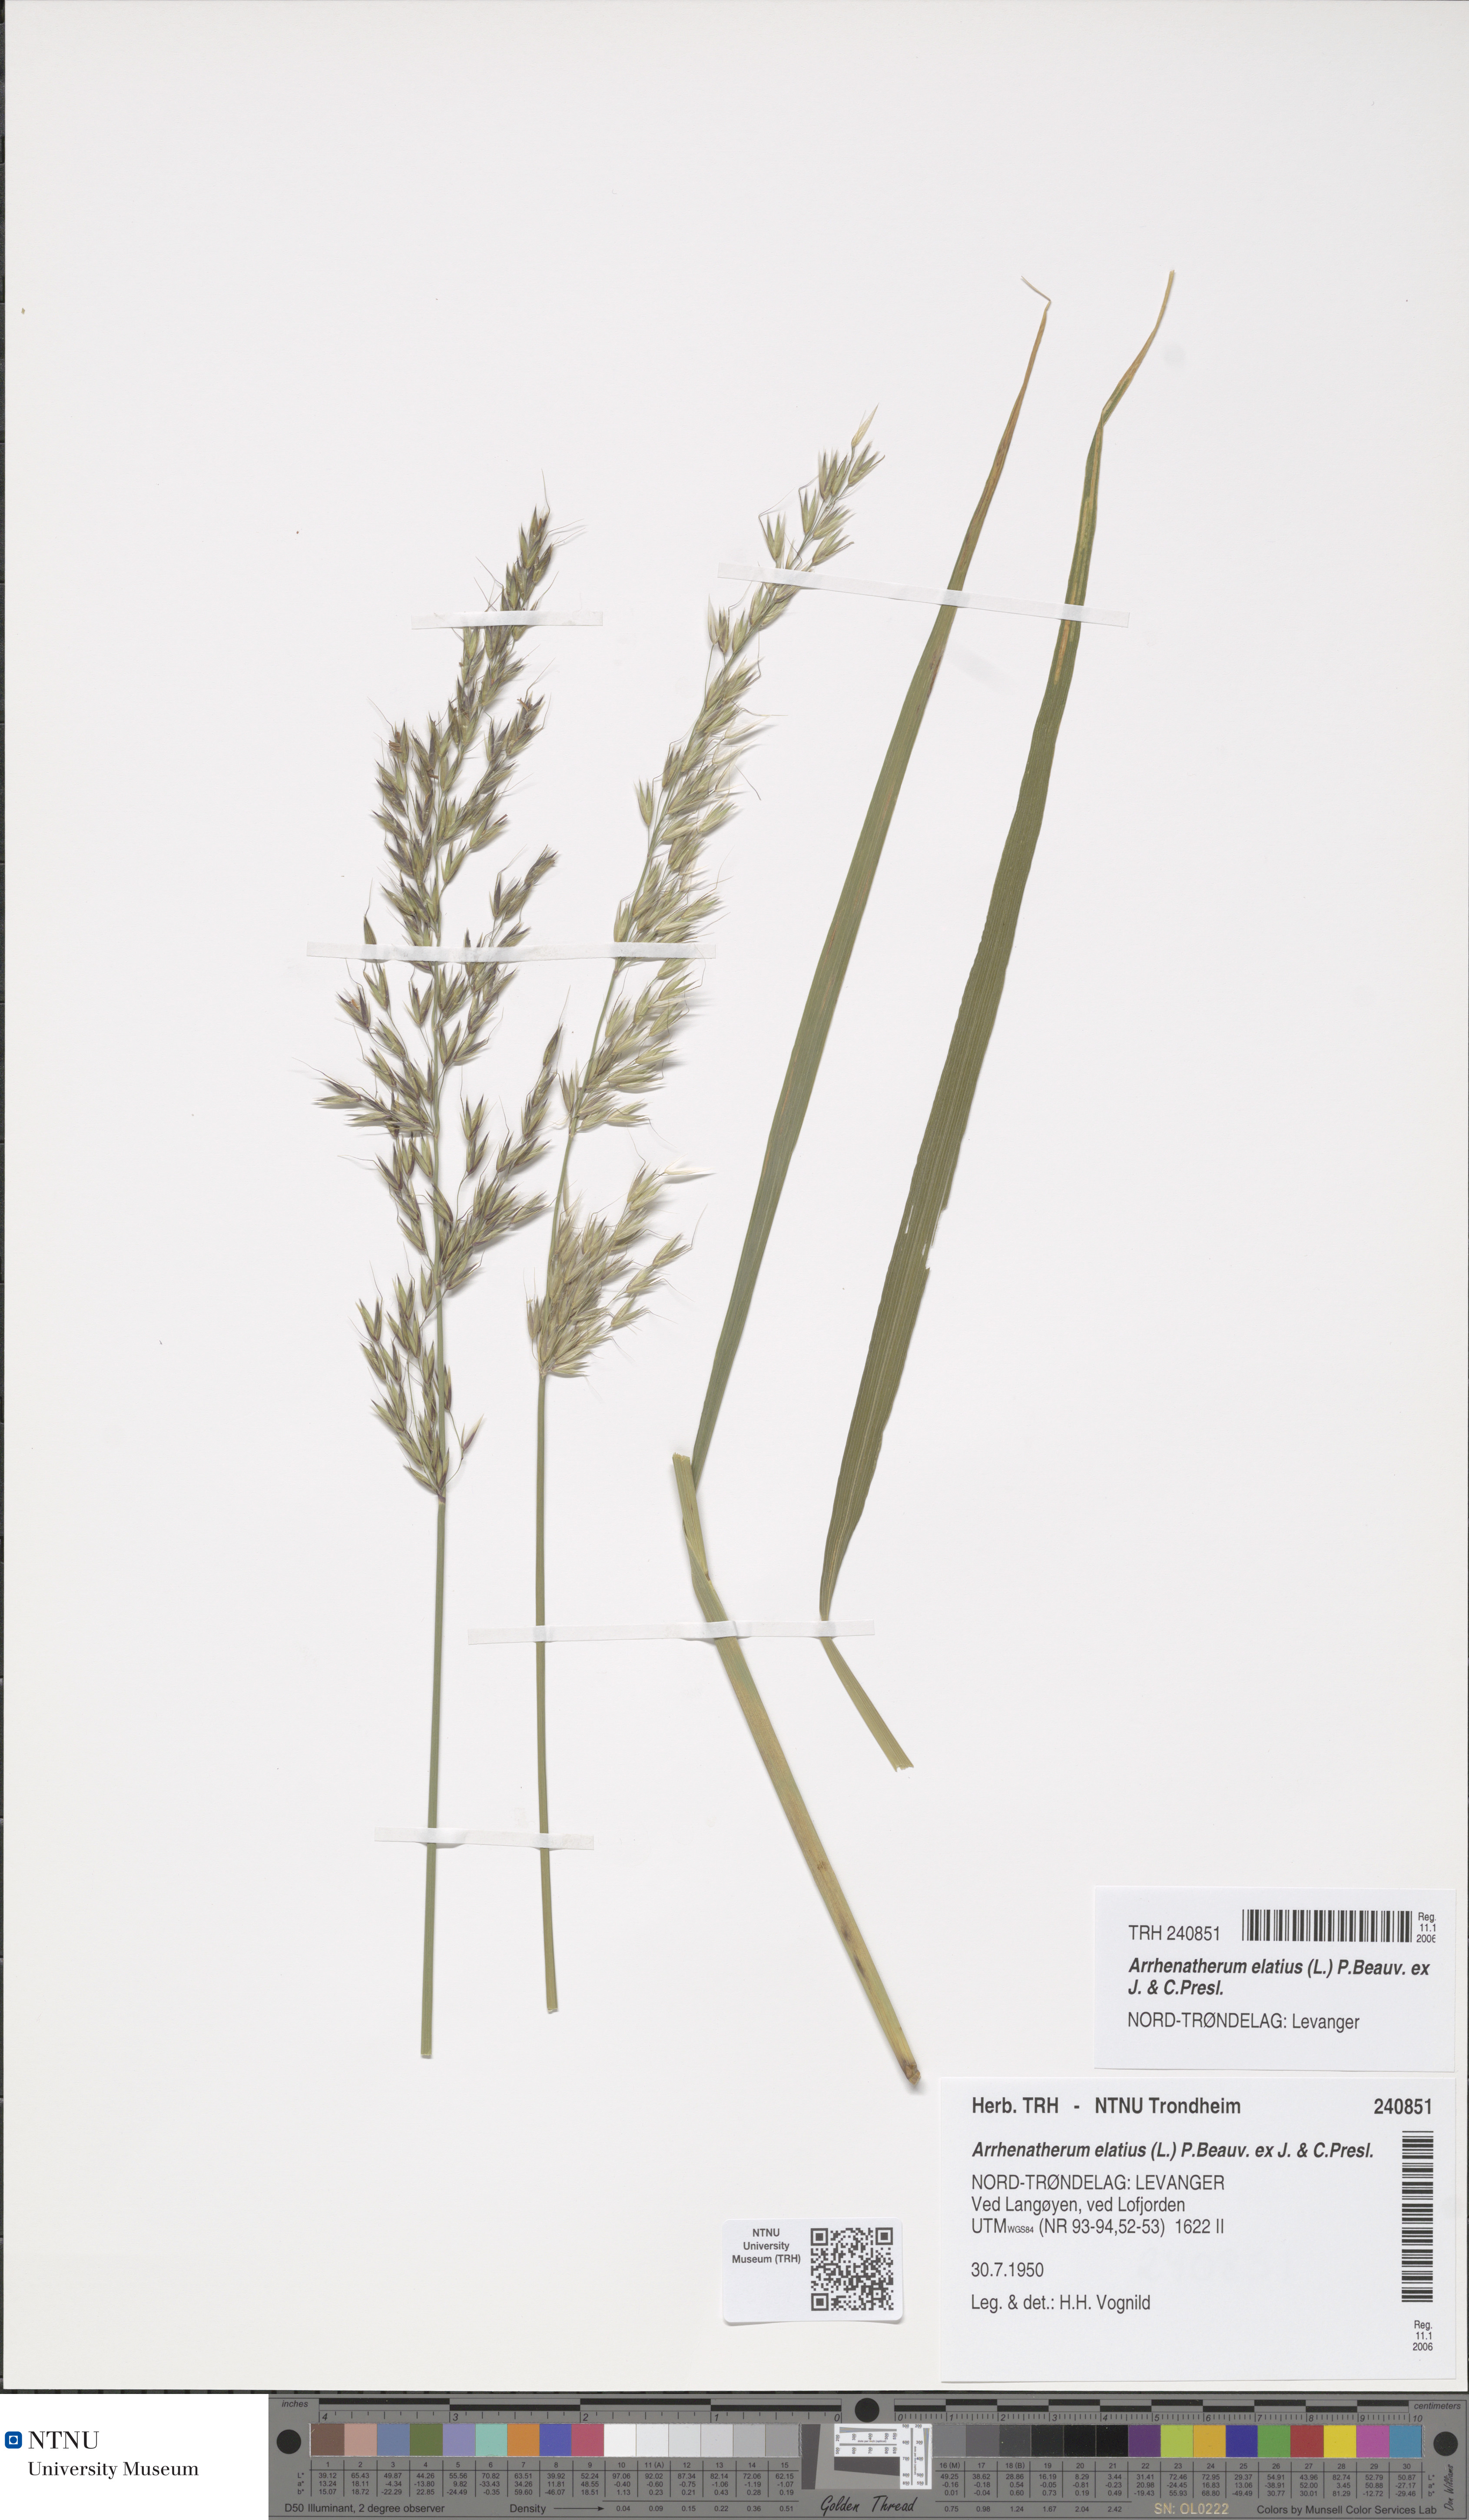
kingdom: Plantae
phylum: Tracheophyta
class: Liliopsida
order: Poales
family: Poaceae
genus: Arrhenatherum
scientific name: Arrhenatherum elatius
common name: Tall oatgrass
